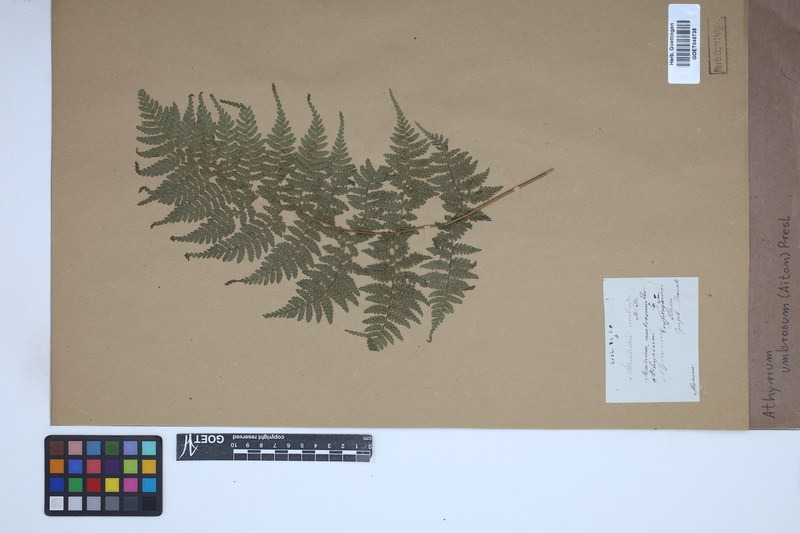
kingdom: Plantae
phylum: Tracheophyta
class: Polypodiopsida
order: Polypodiales
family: Athyriaceae
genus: Diplazium
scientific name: Diplazium caudatum
